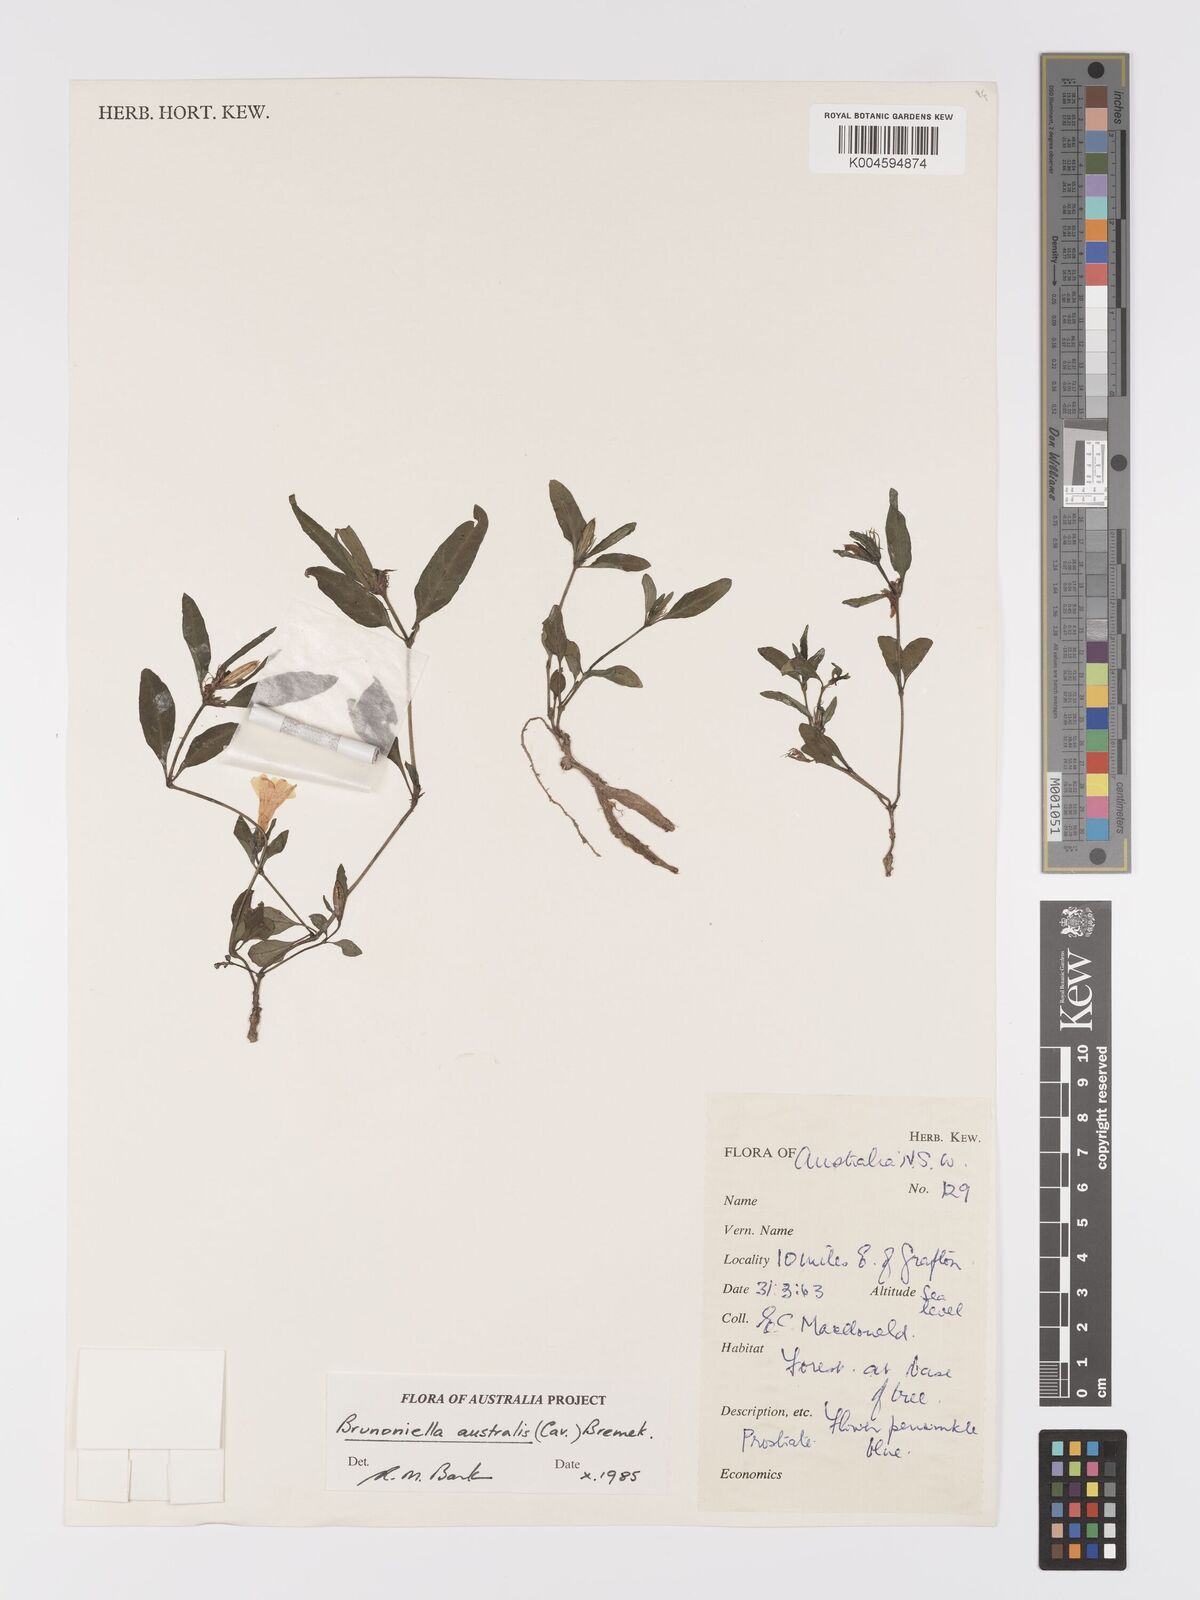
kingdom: Plantae
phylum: Tracheophyta
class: Magnoliopsida
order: Lamiales
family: Acanthaceae
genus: Brunoniella
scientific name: Brunoniella australis
